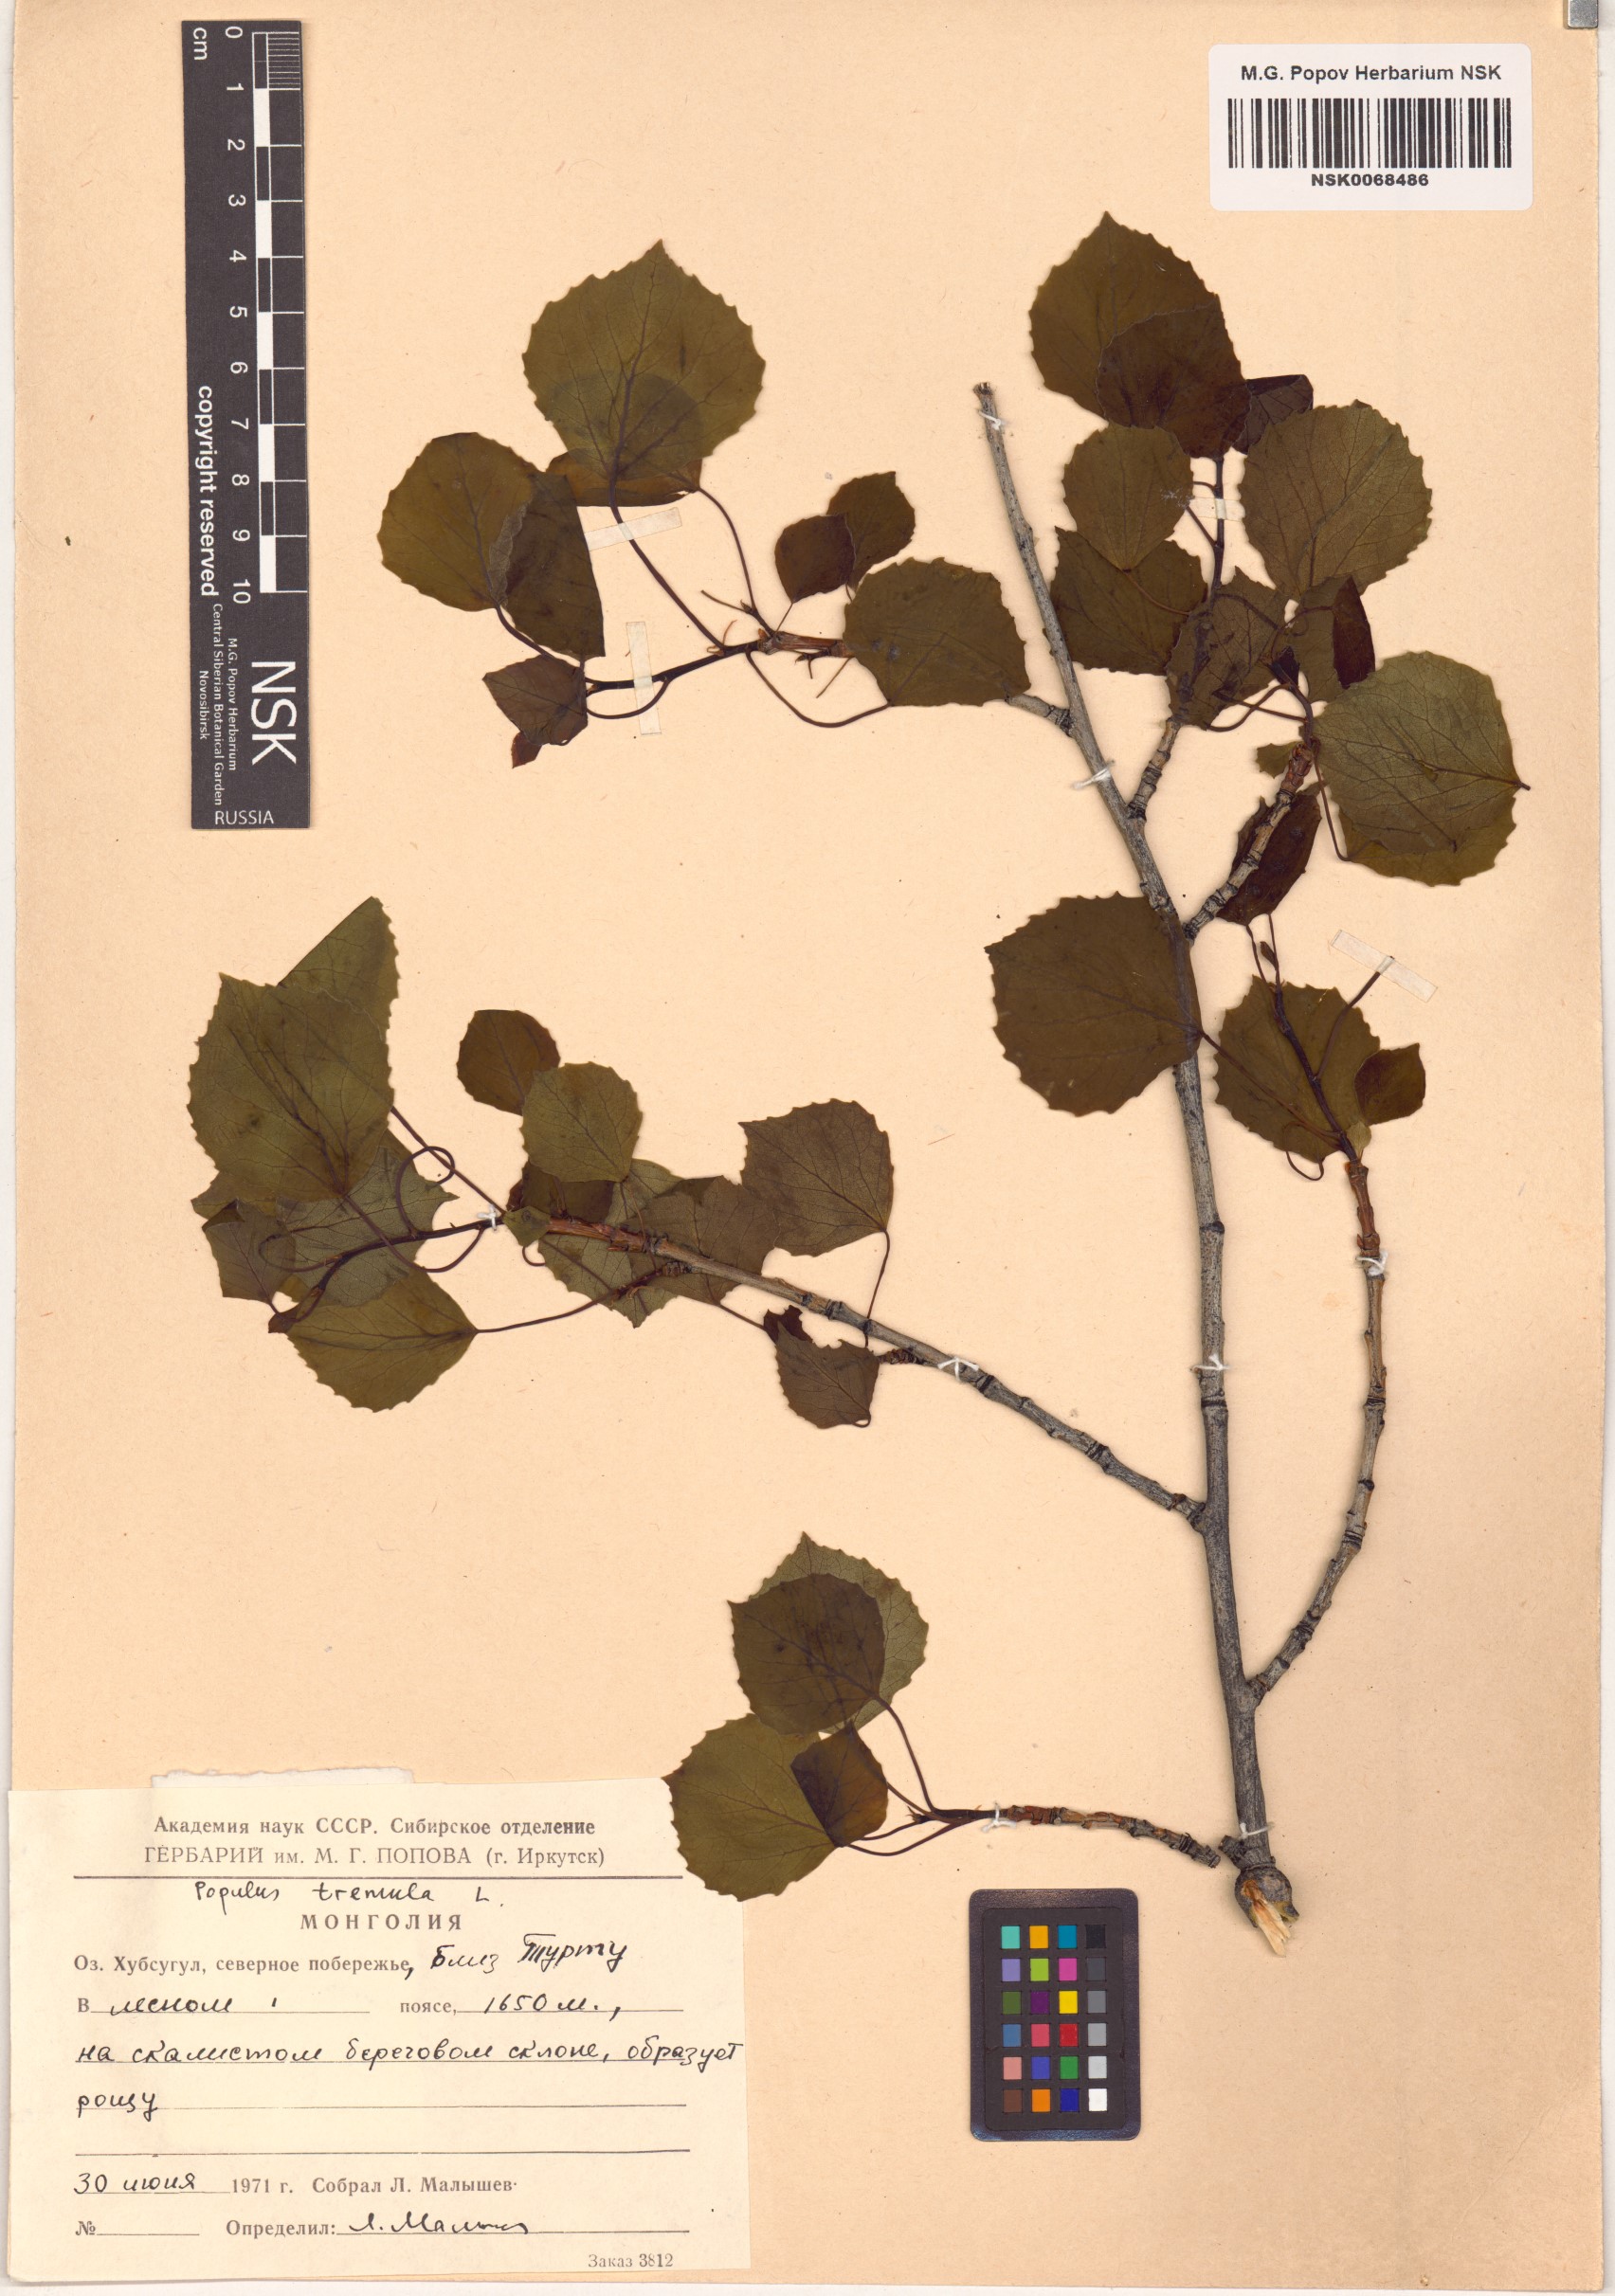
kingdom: Plantae
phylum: Tracheophyta
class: Magnoliopsida
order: Malpighiales
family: Salicaceae
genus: Populus
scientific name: Populus tremula
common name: European aspen
